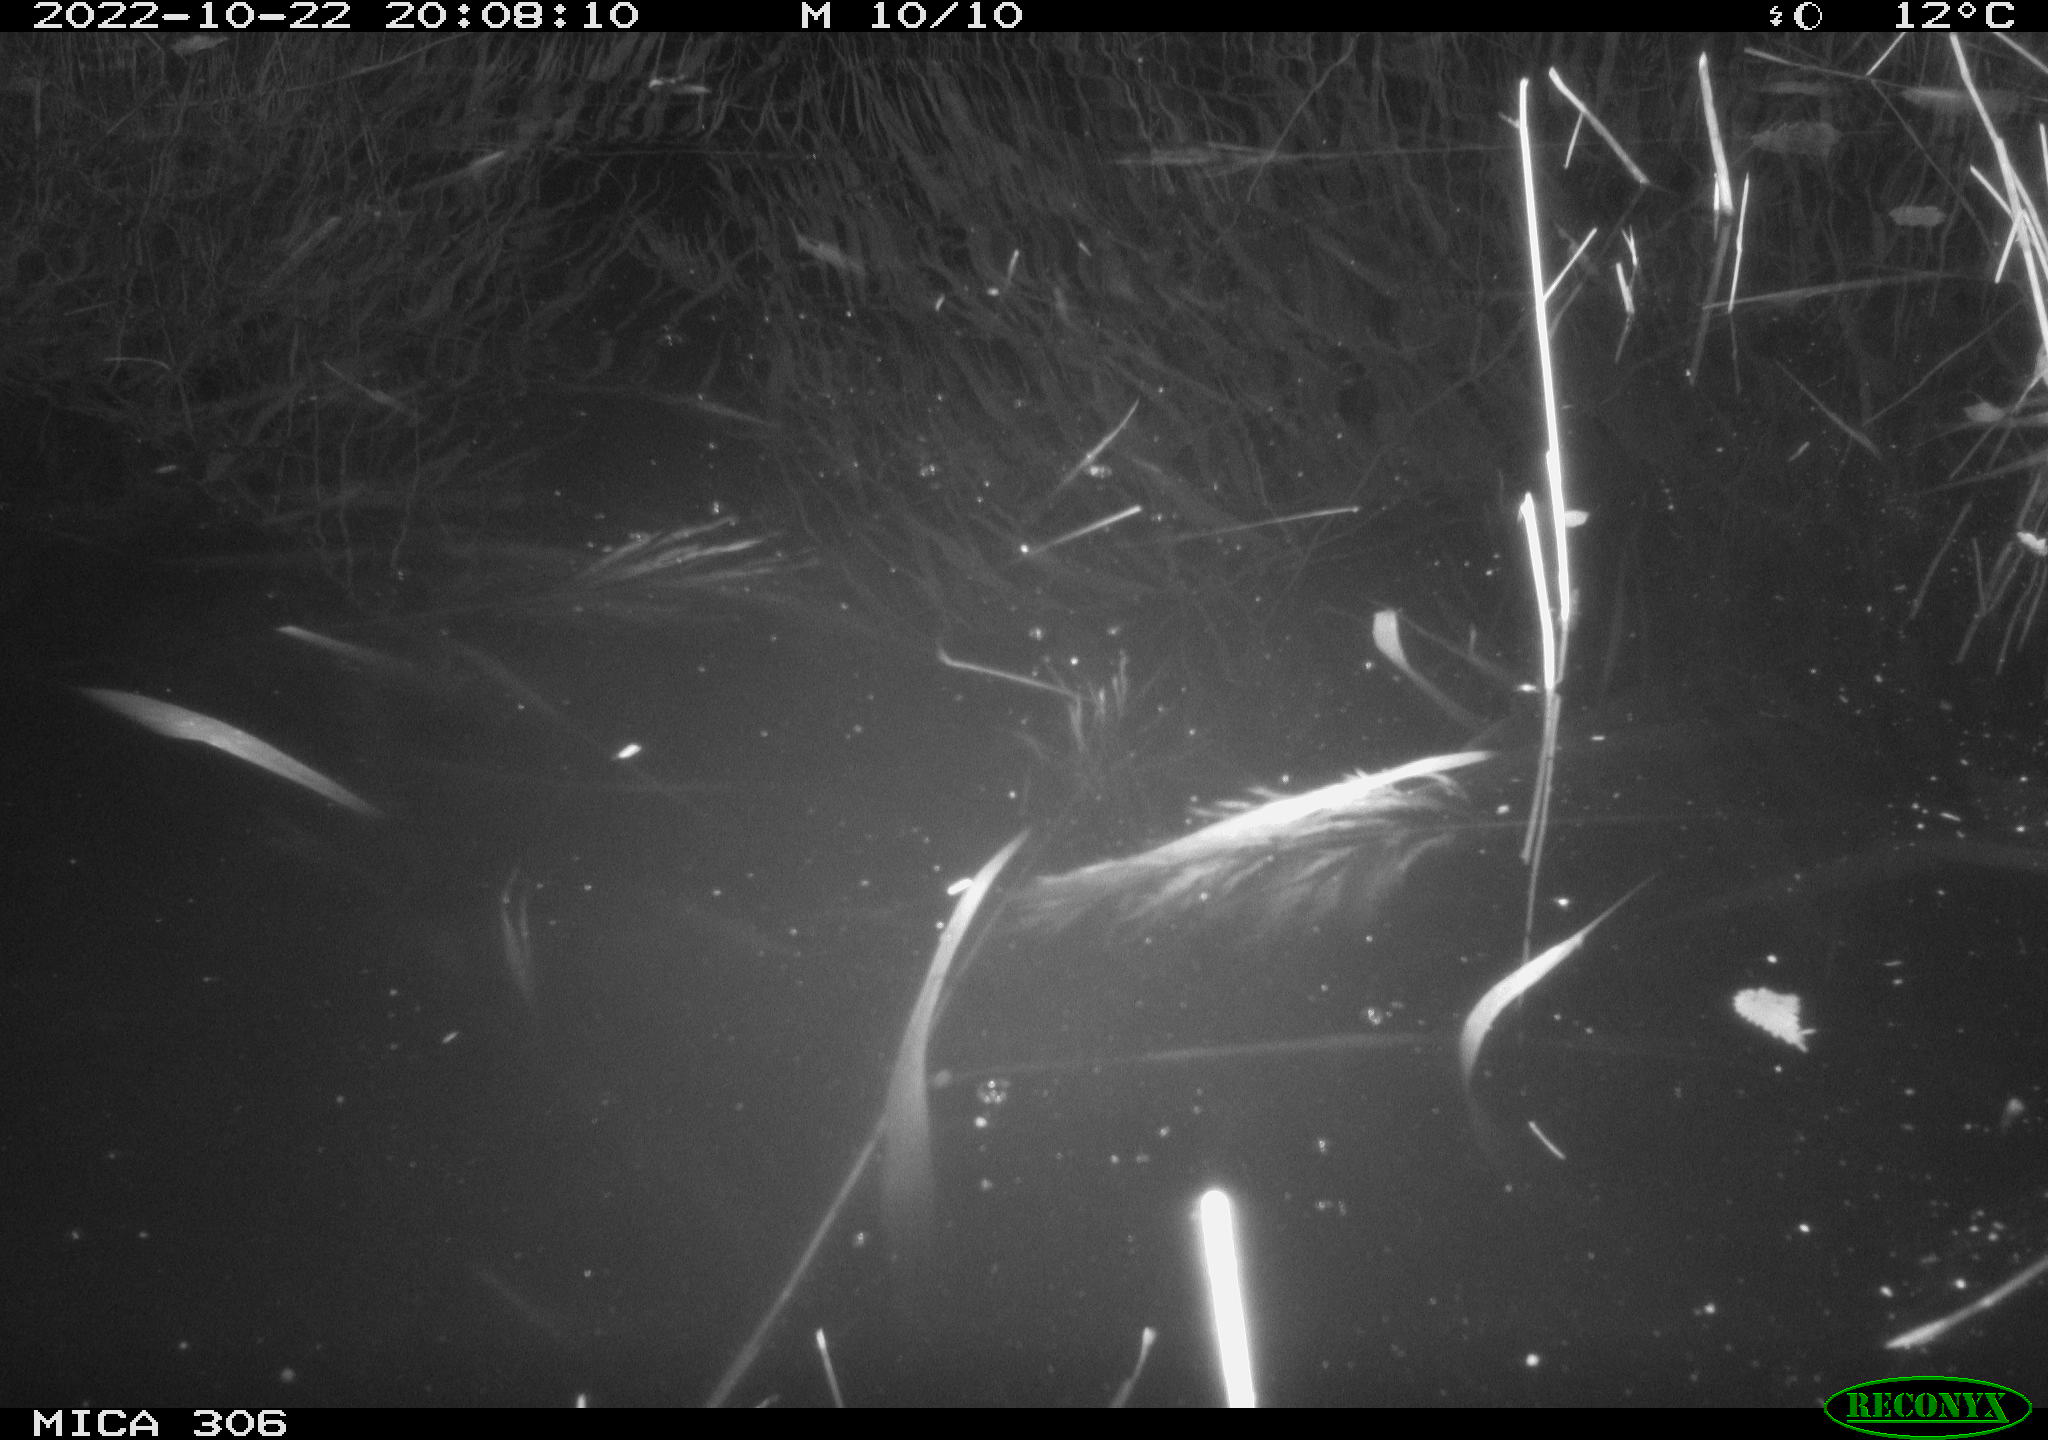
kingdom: Animalia
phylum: Chordata
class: Mammalia
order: Rodentia
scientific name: Rodentia
